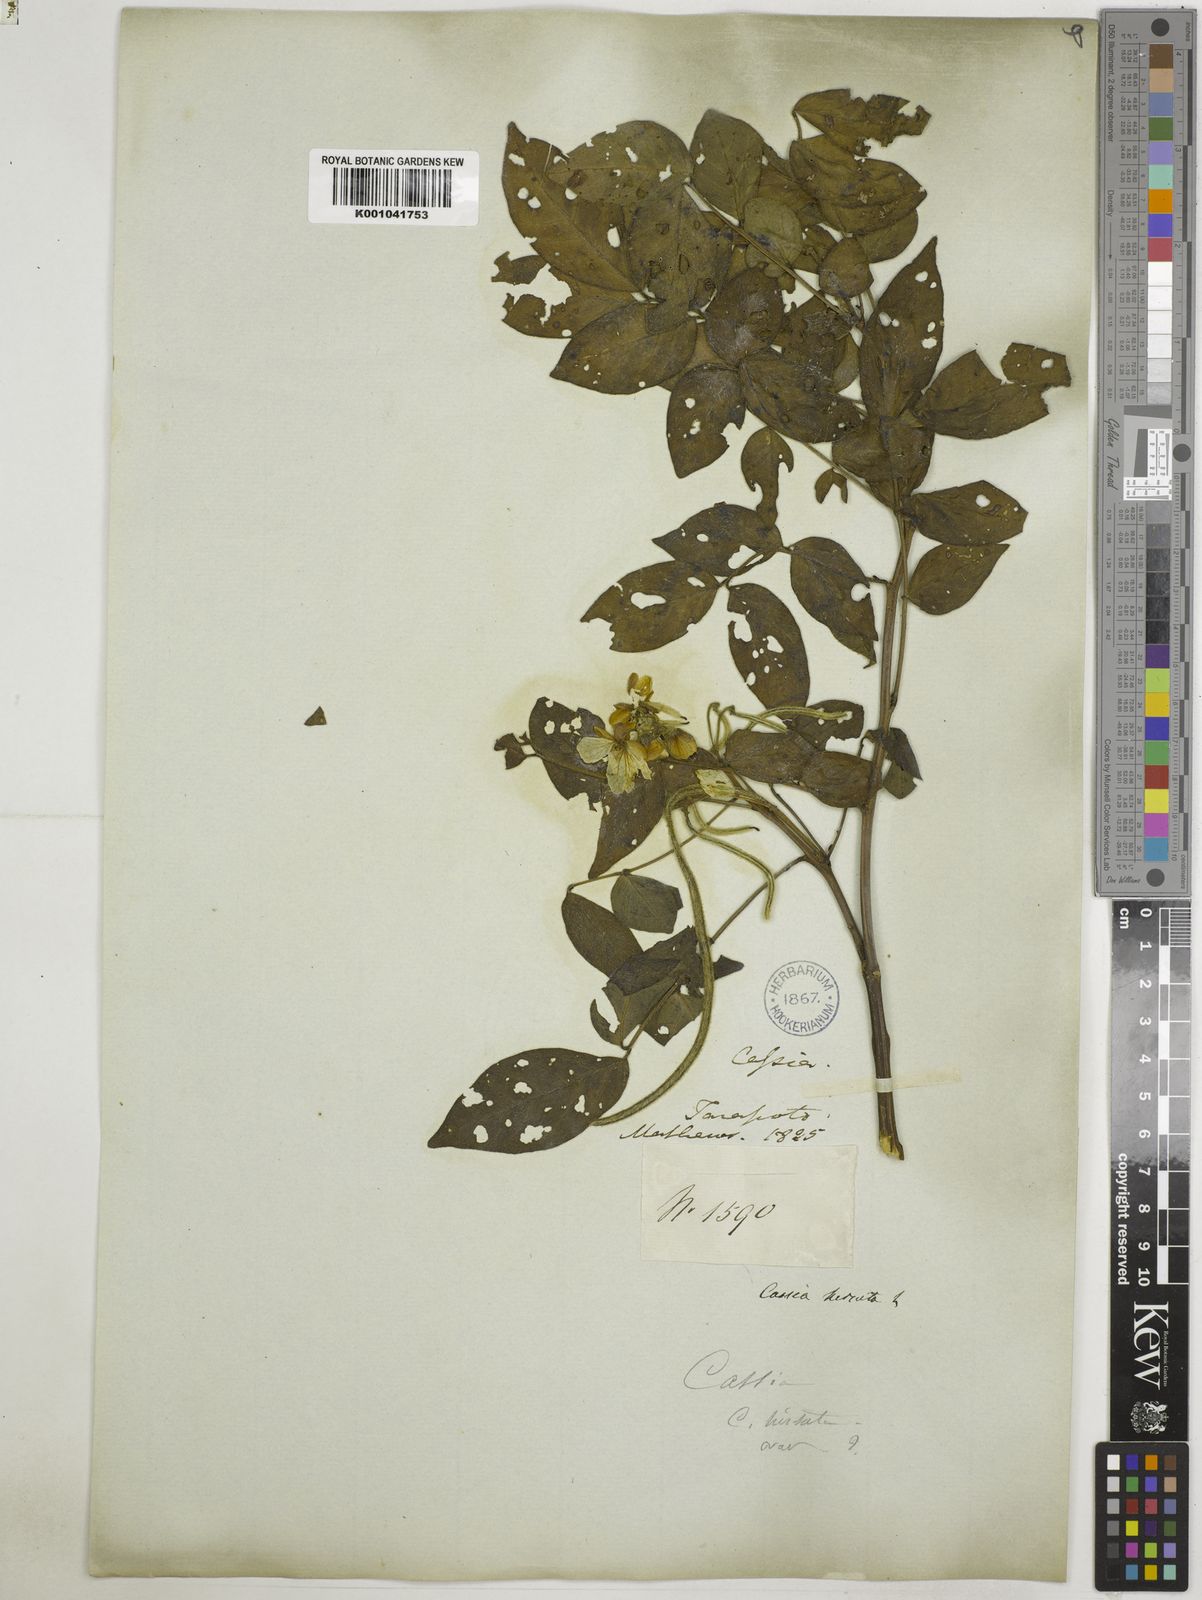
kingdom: Plantae
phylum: Tracheophyta
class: Magnoliopsida
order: Fabales
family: Fabaceae
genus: Senna
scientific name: Senna hirsuta
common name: Woolly senna
